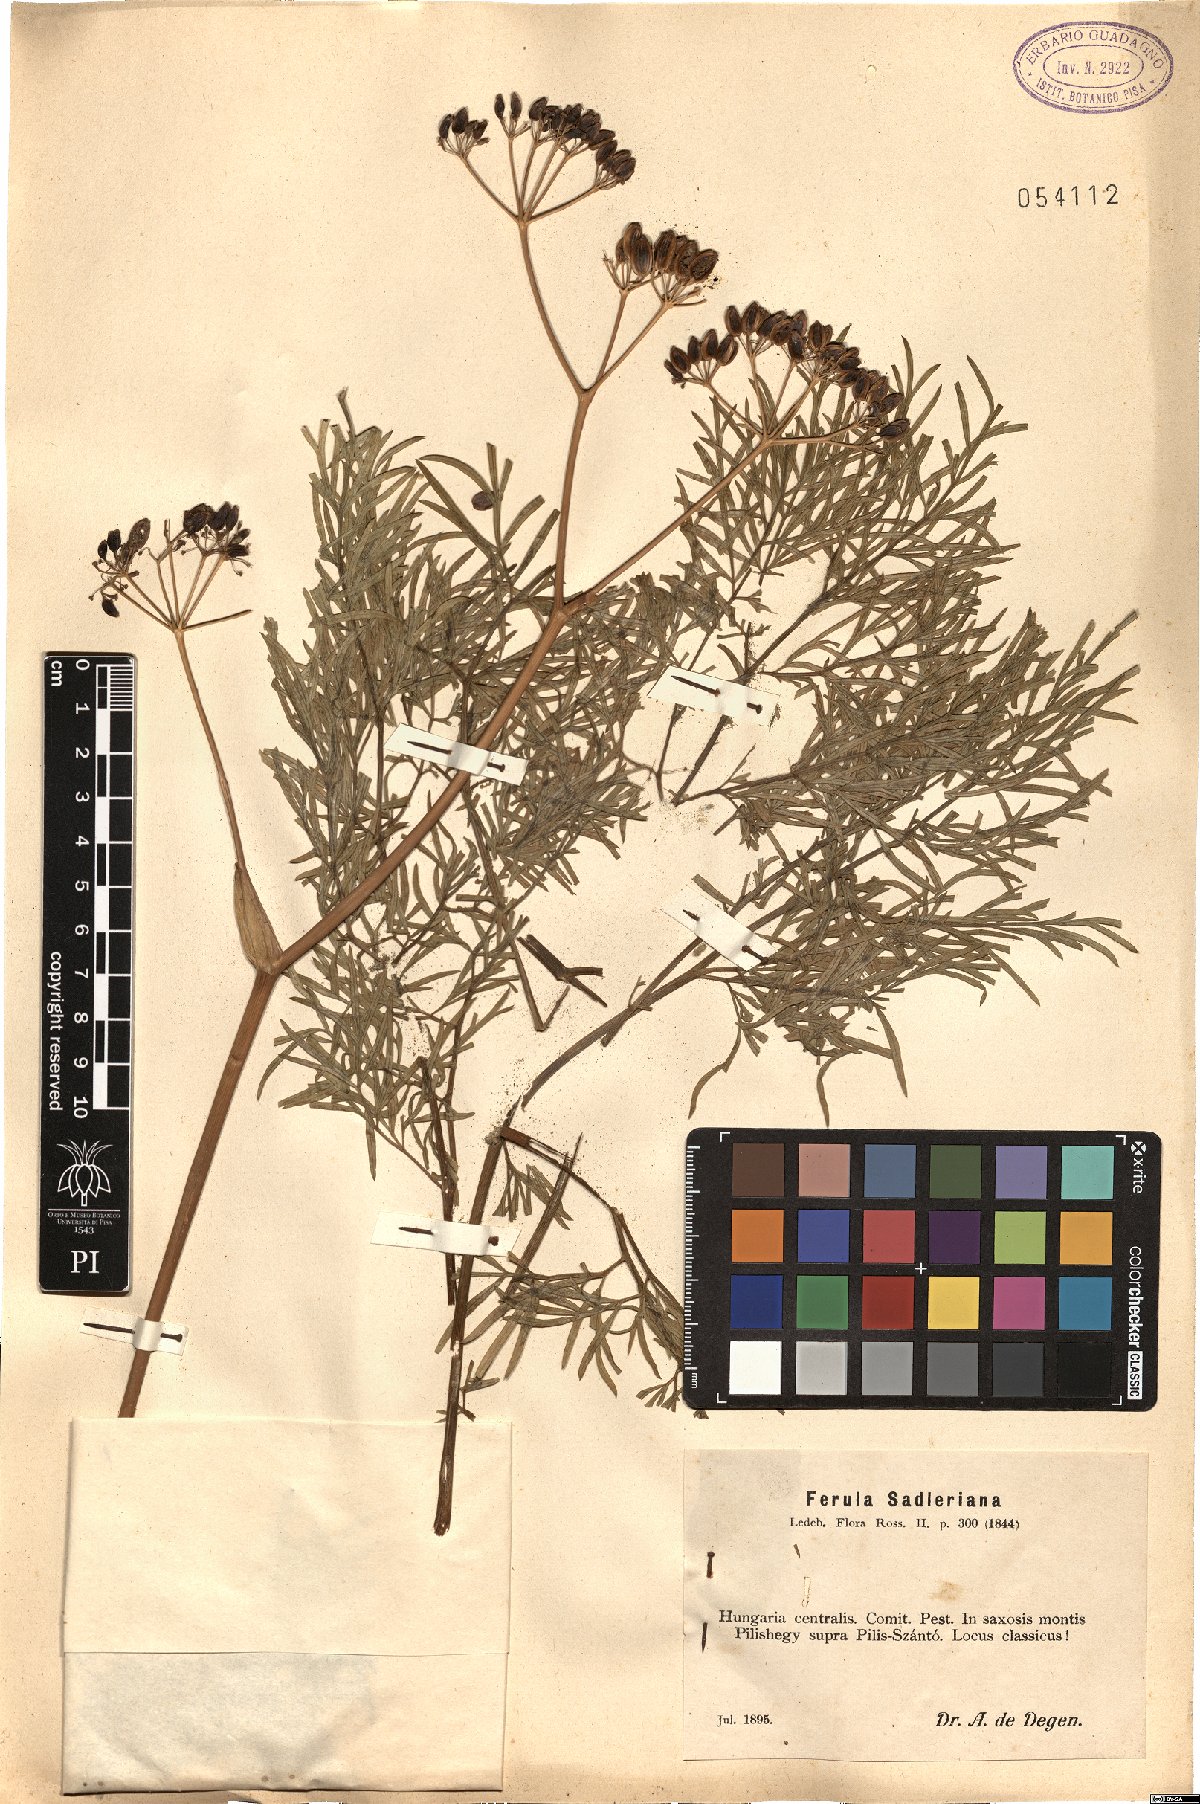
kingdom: Plantae
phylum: Tracheophyta
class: Magnoliopsida
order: Apiales
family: Apiaceae
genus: Ferula
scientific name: Ferula sadleriana
